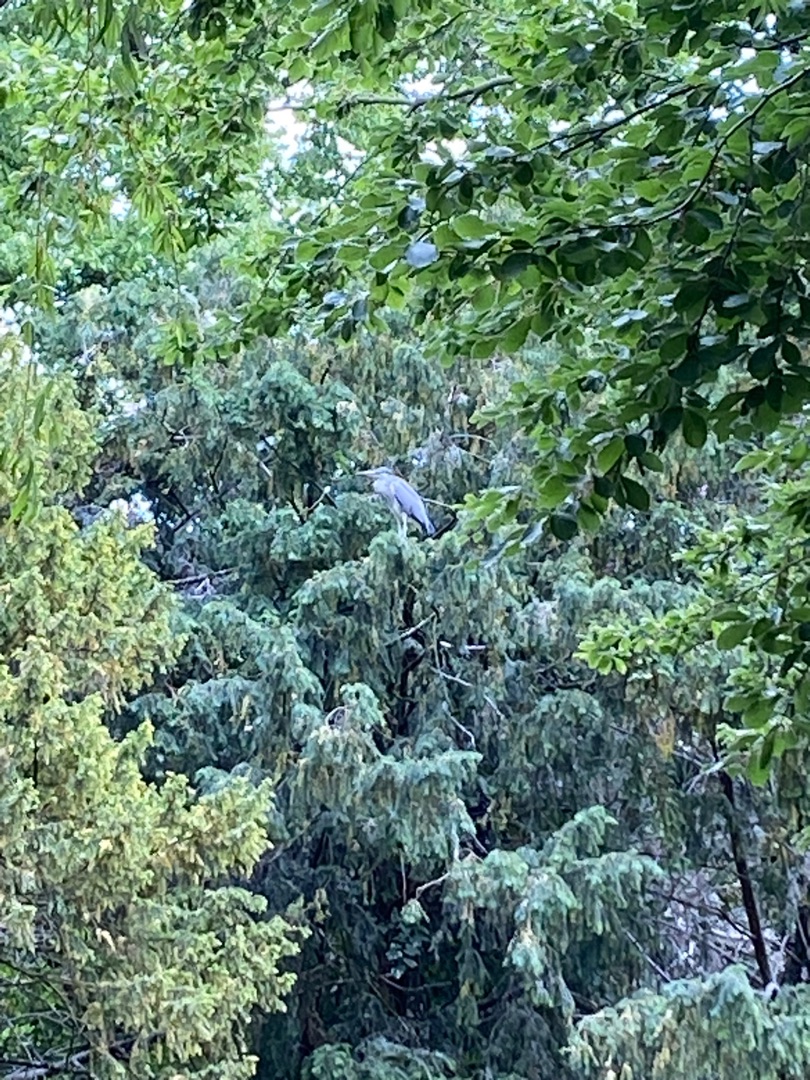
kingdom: Animalia
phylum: Chordata
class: Aves
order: Pelecaniformes
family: Ardeidae
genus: Ardea
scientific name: Ardea cinerea
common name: Fiskehejre
